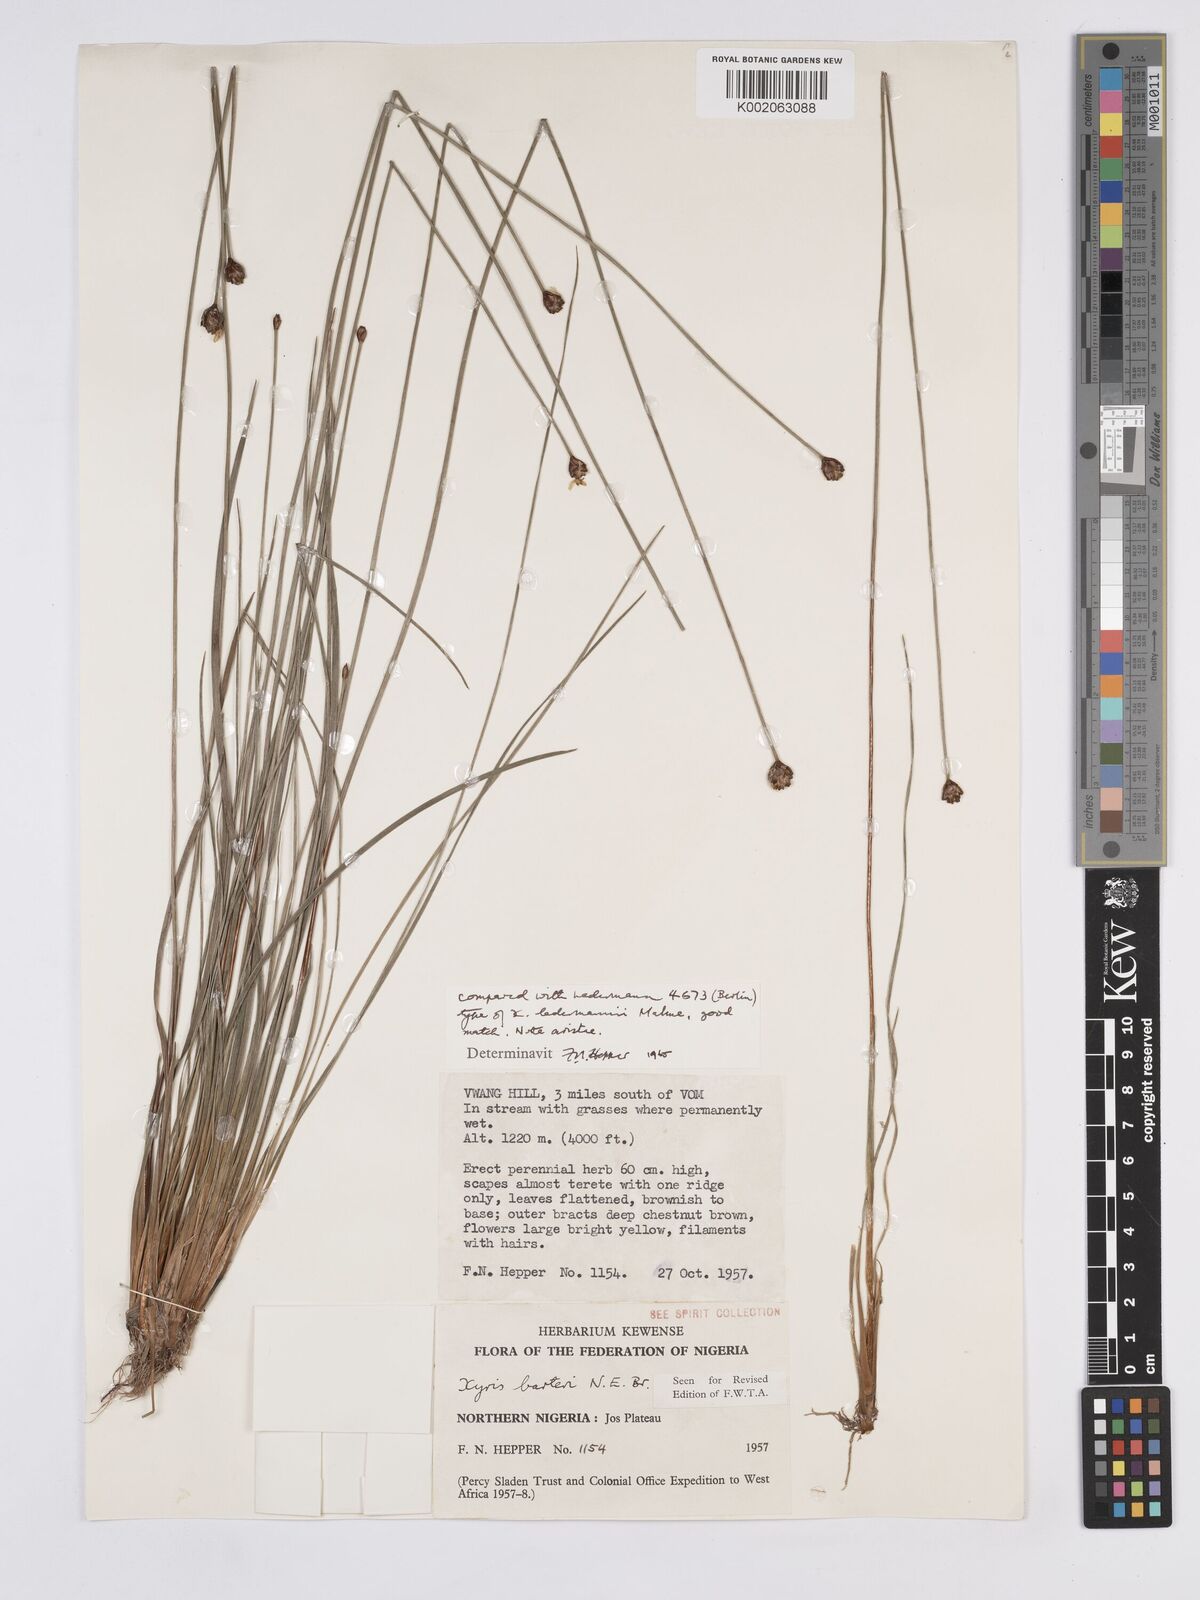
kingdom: Plantae
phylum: Tracheophyta
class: Liliopsida
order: Poales
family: Xyridaceae
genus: Xyris
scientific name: Xyris barteri
